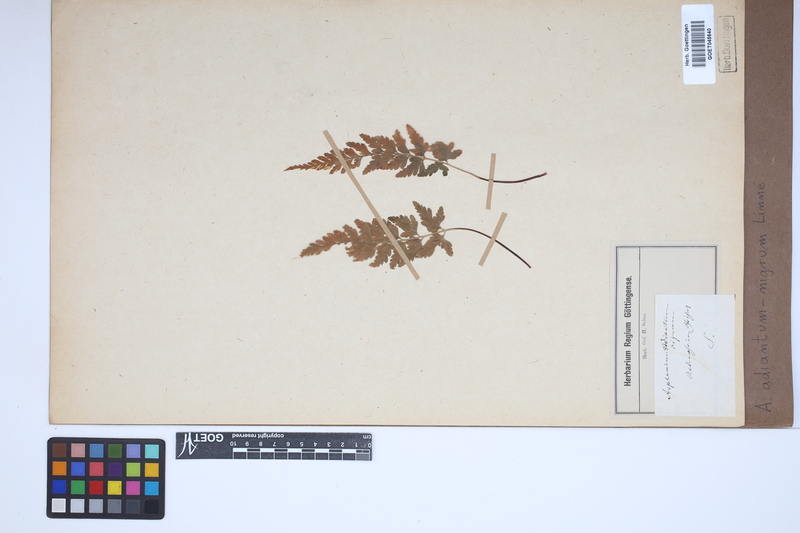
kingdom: Plantae
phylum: Tracheophyta
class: Polypodiopsida
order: Polypodiales
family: Aspleniaceae
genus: Asplenium
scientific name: Asplenium adiantum-nigrum
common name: Black spleenwort
